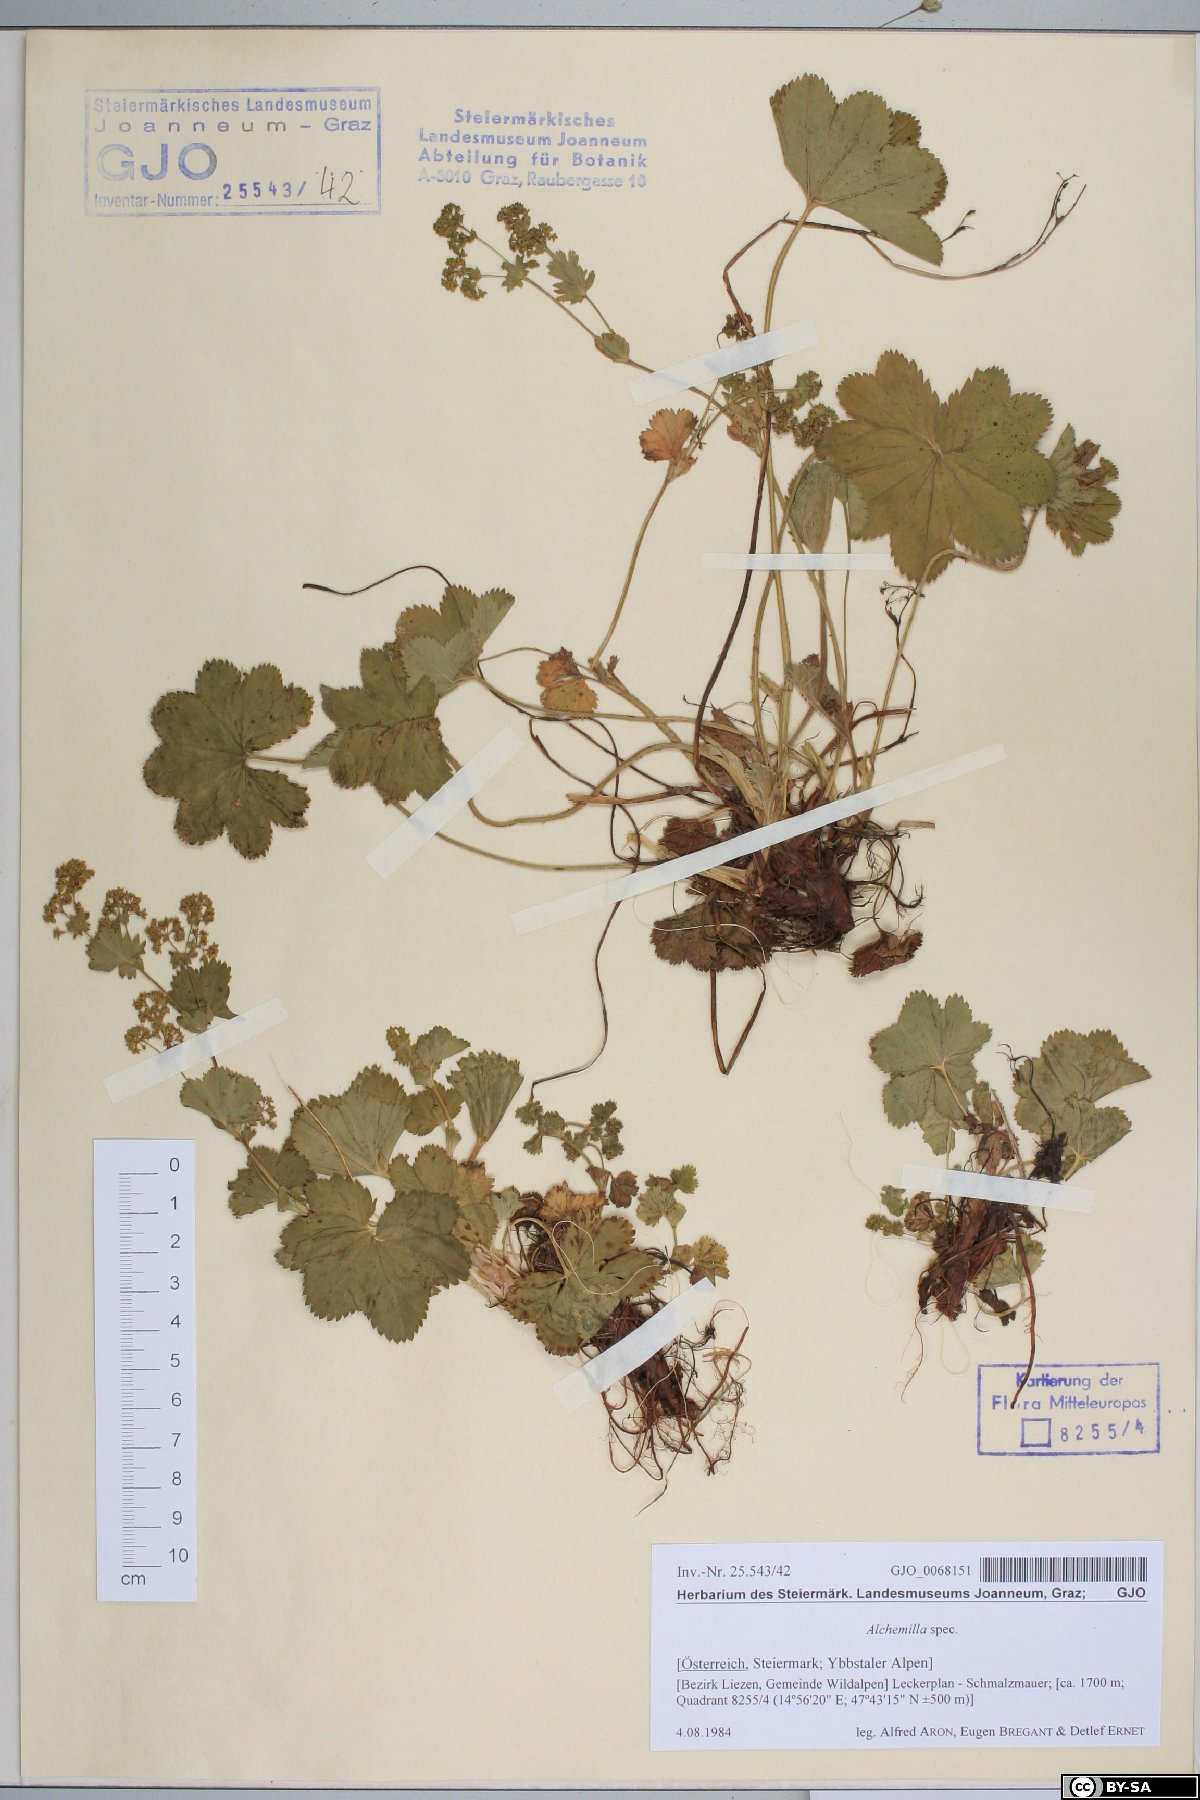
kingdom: Plantae
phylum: Tracheophyta
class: Magnoliopsida
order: Rosales
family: Rosaceae
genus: Alchemilla
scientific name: Alchemilla
